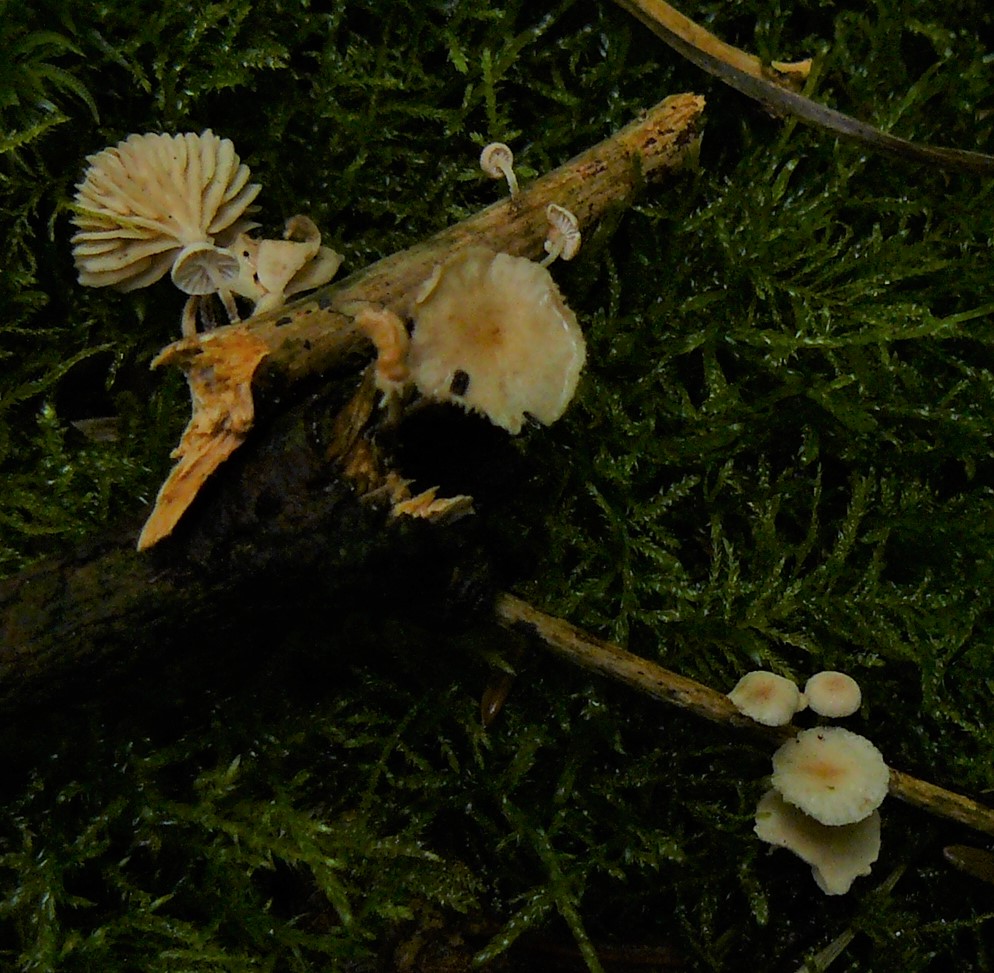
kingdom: Fungi
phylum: Basidiomycota
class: Agaricomycetes
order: Agaricales
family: Omphalotaceae
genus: Collybiopsis
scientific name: Collybiopsis ramealis
